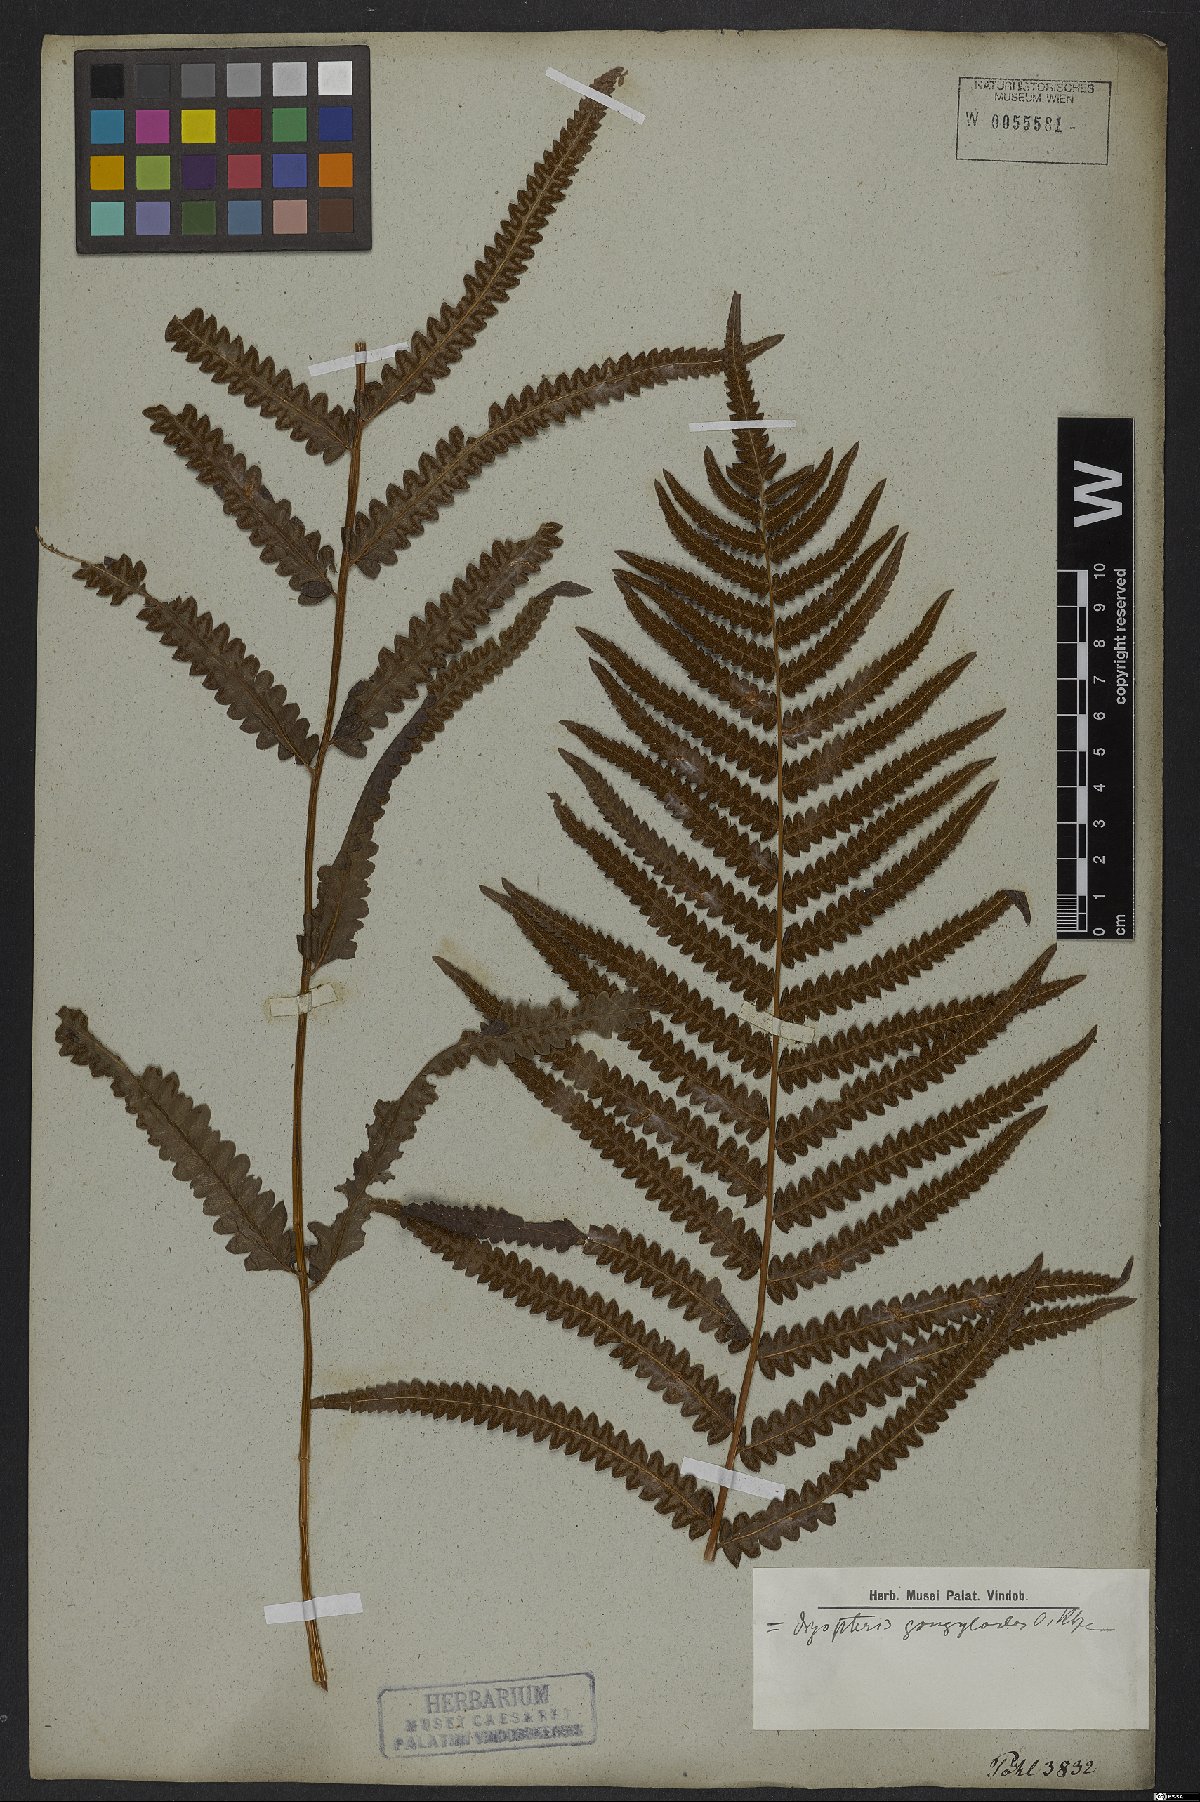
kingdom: Plantae
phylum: Tracheophyta
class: Polypodiopsida
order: Polypodiales
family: Thelypteridaceae
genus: Cyclosorus
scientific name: Cyclosorus interruptus
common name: Neke fern
